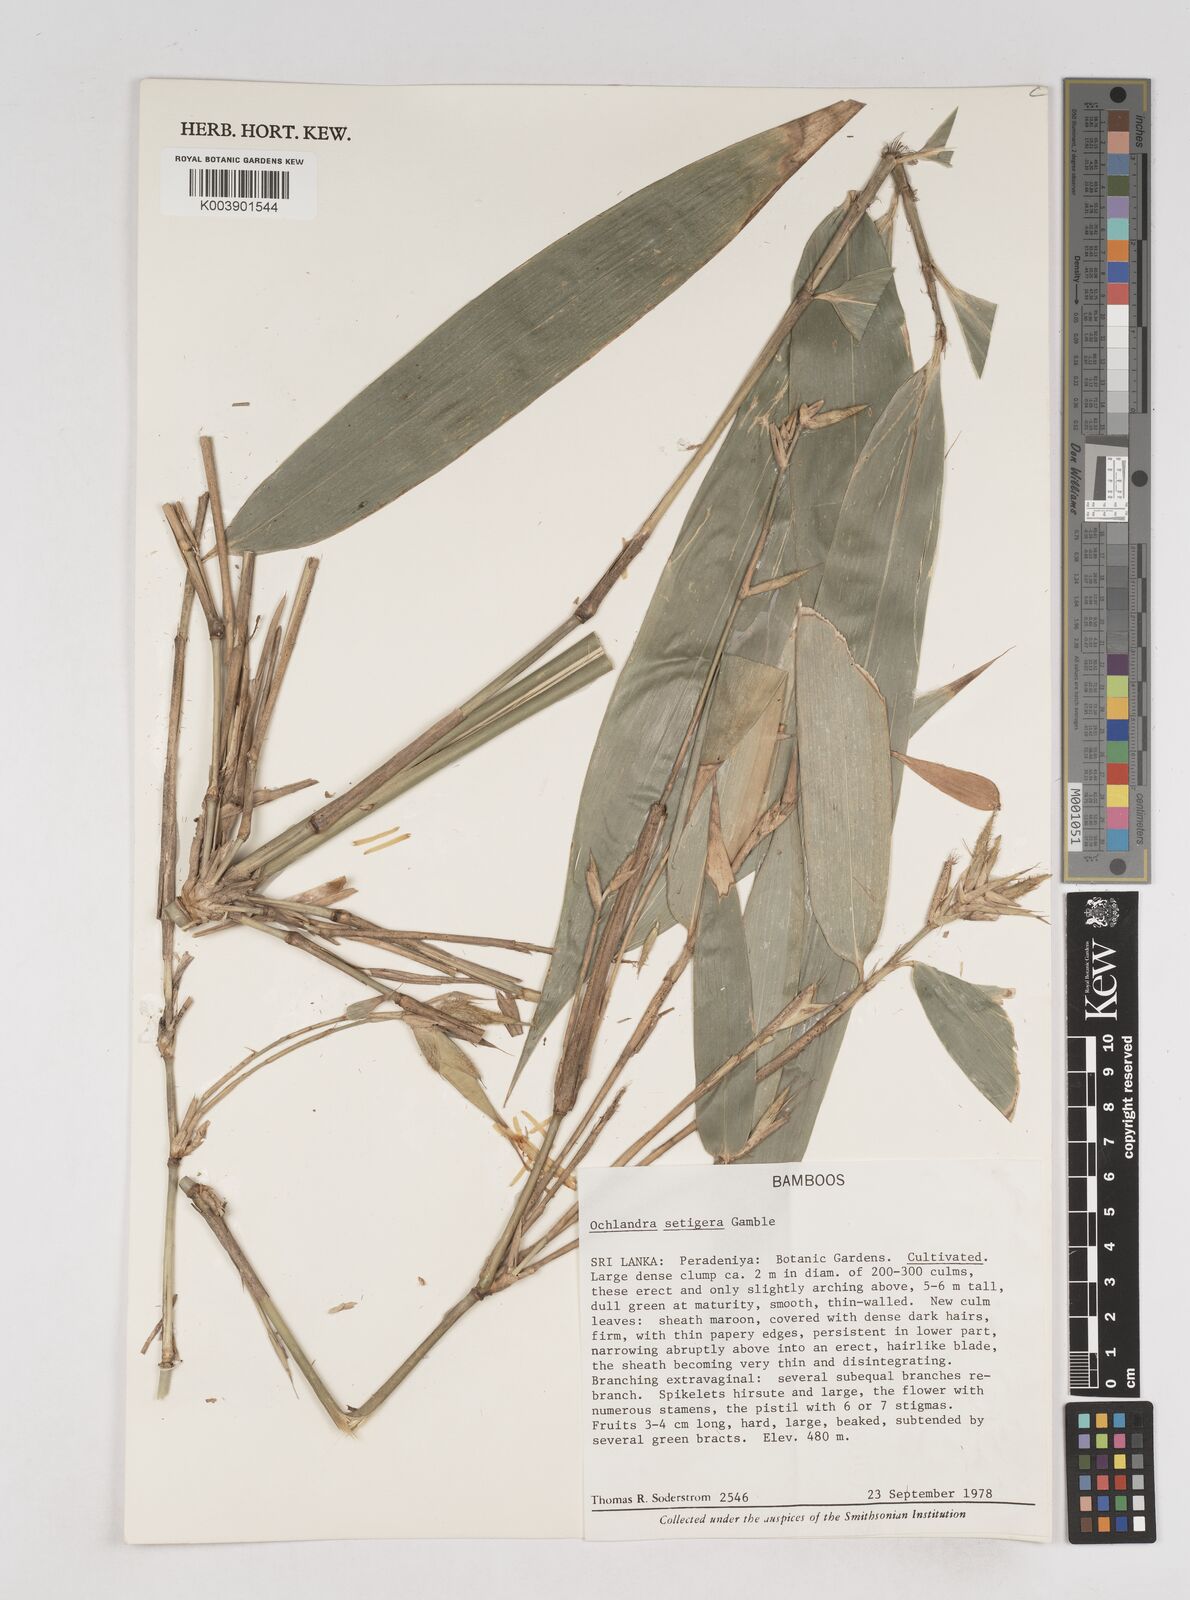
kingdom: Plantae
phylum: Tracheophyta
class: Liliopsida
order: Poales
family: Poaceae
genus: Ochlandra
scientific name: Ochlandra setigera
